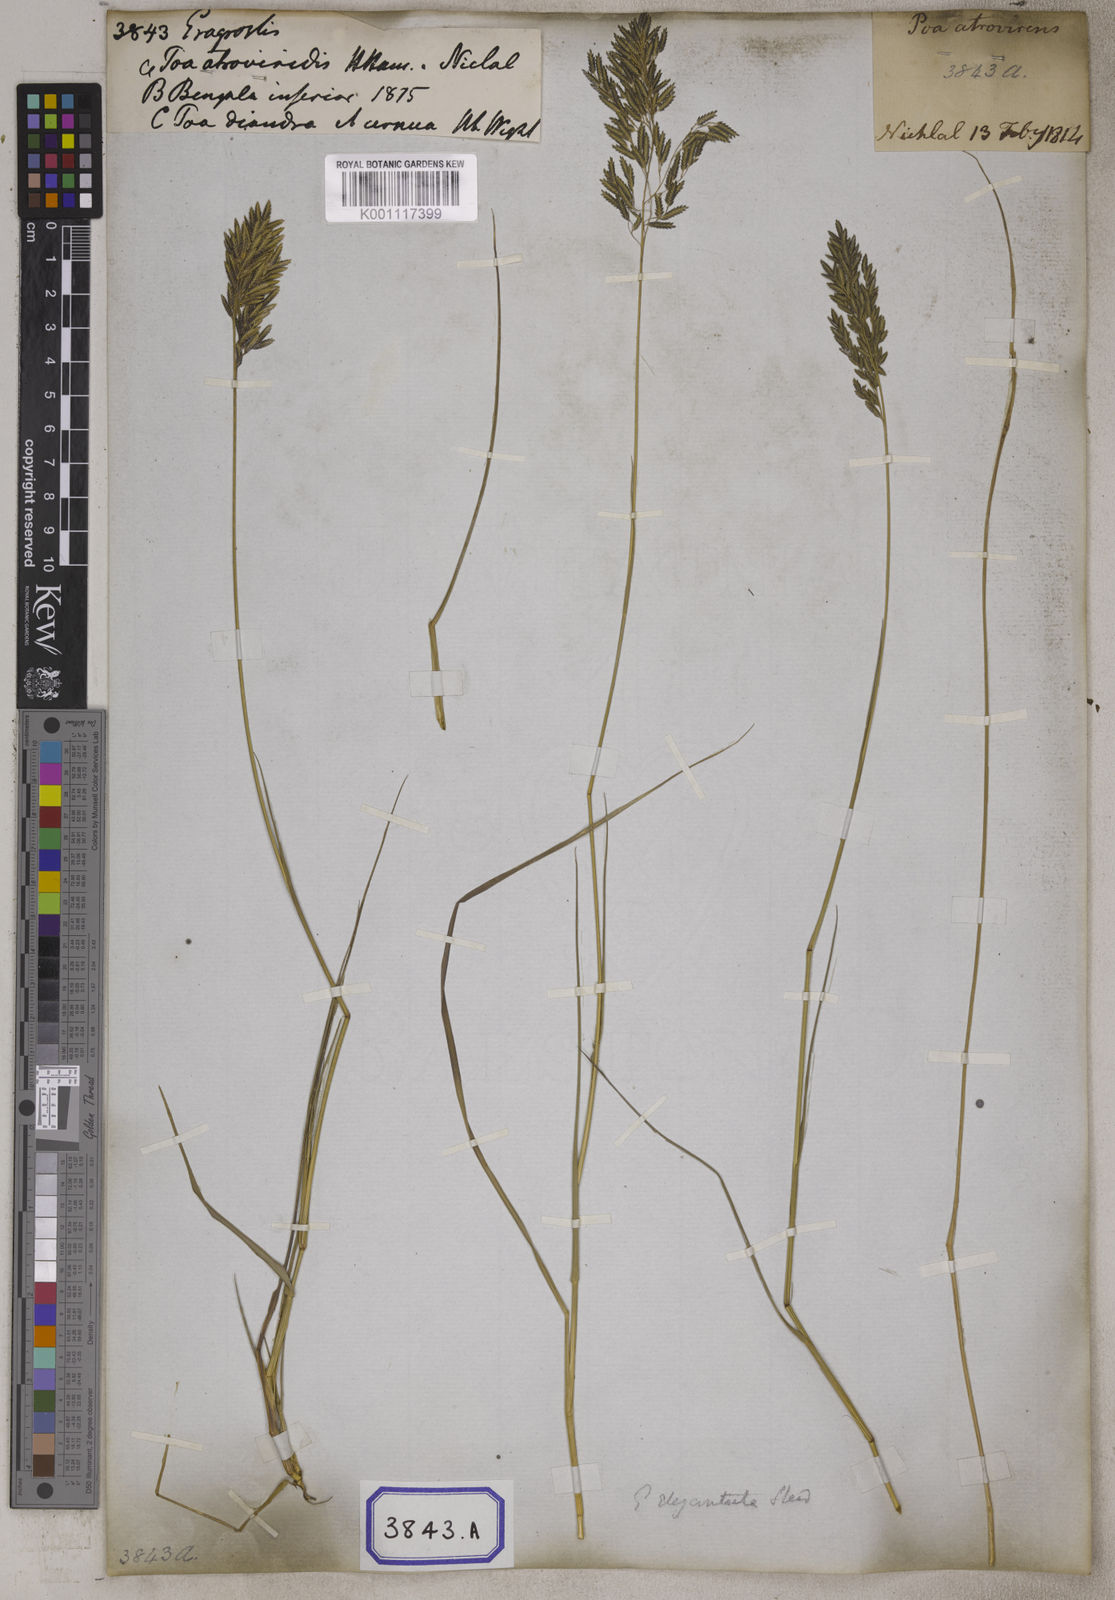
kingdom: Plantae
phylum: Tracheophyta
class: Liliopsida
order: Poales
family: Poaceae
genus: Eragrostis
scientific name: Eragrostis
